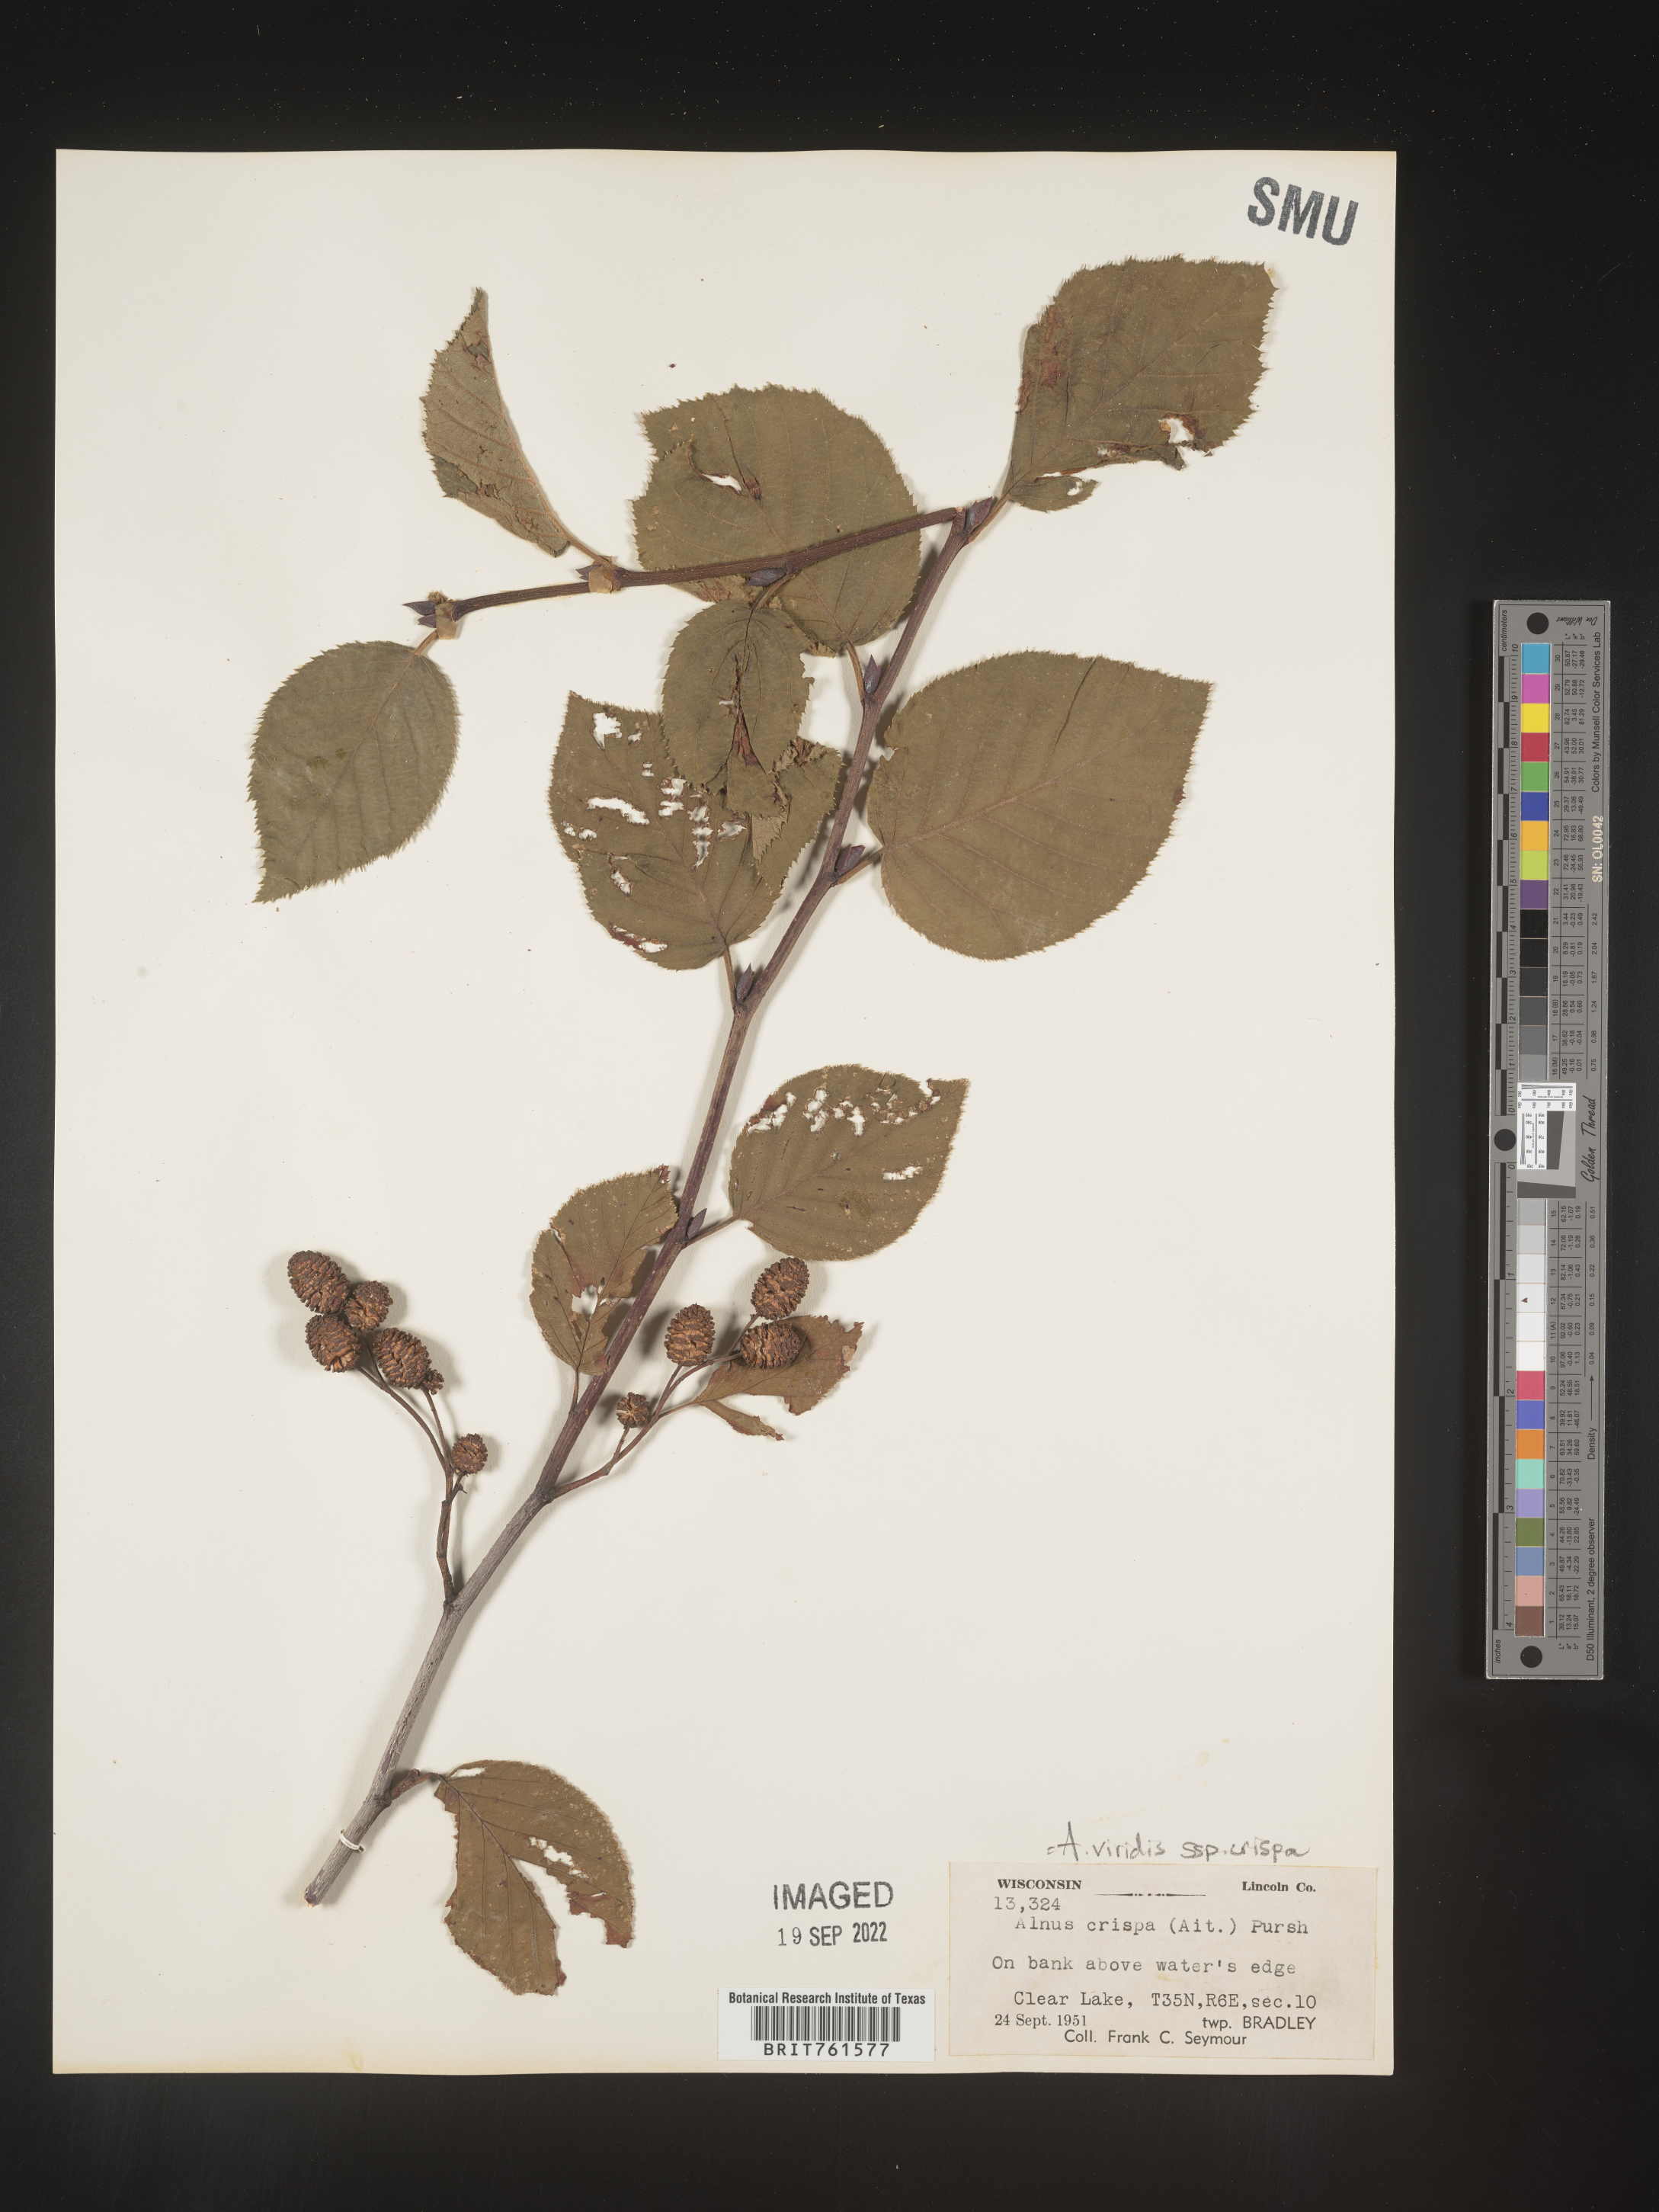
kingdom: Plantae
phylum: Tracheophyta
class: Magnoliopsida
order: Fagales
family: Betulaceae
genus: Alnus
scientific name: Alnus alnobetula
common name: Green alder
